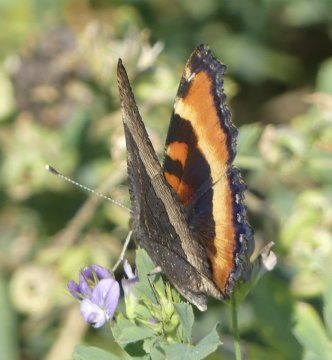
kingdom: Animalia
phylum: Arthropoda
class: Insecta
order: Lepidoptera
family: Nymphalidae
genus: Aglais
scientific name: Aglais milberti
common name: Milbert's Tortoiseshell
